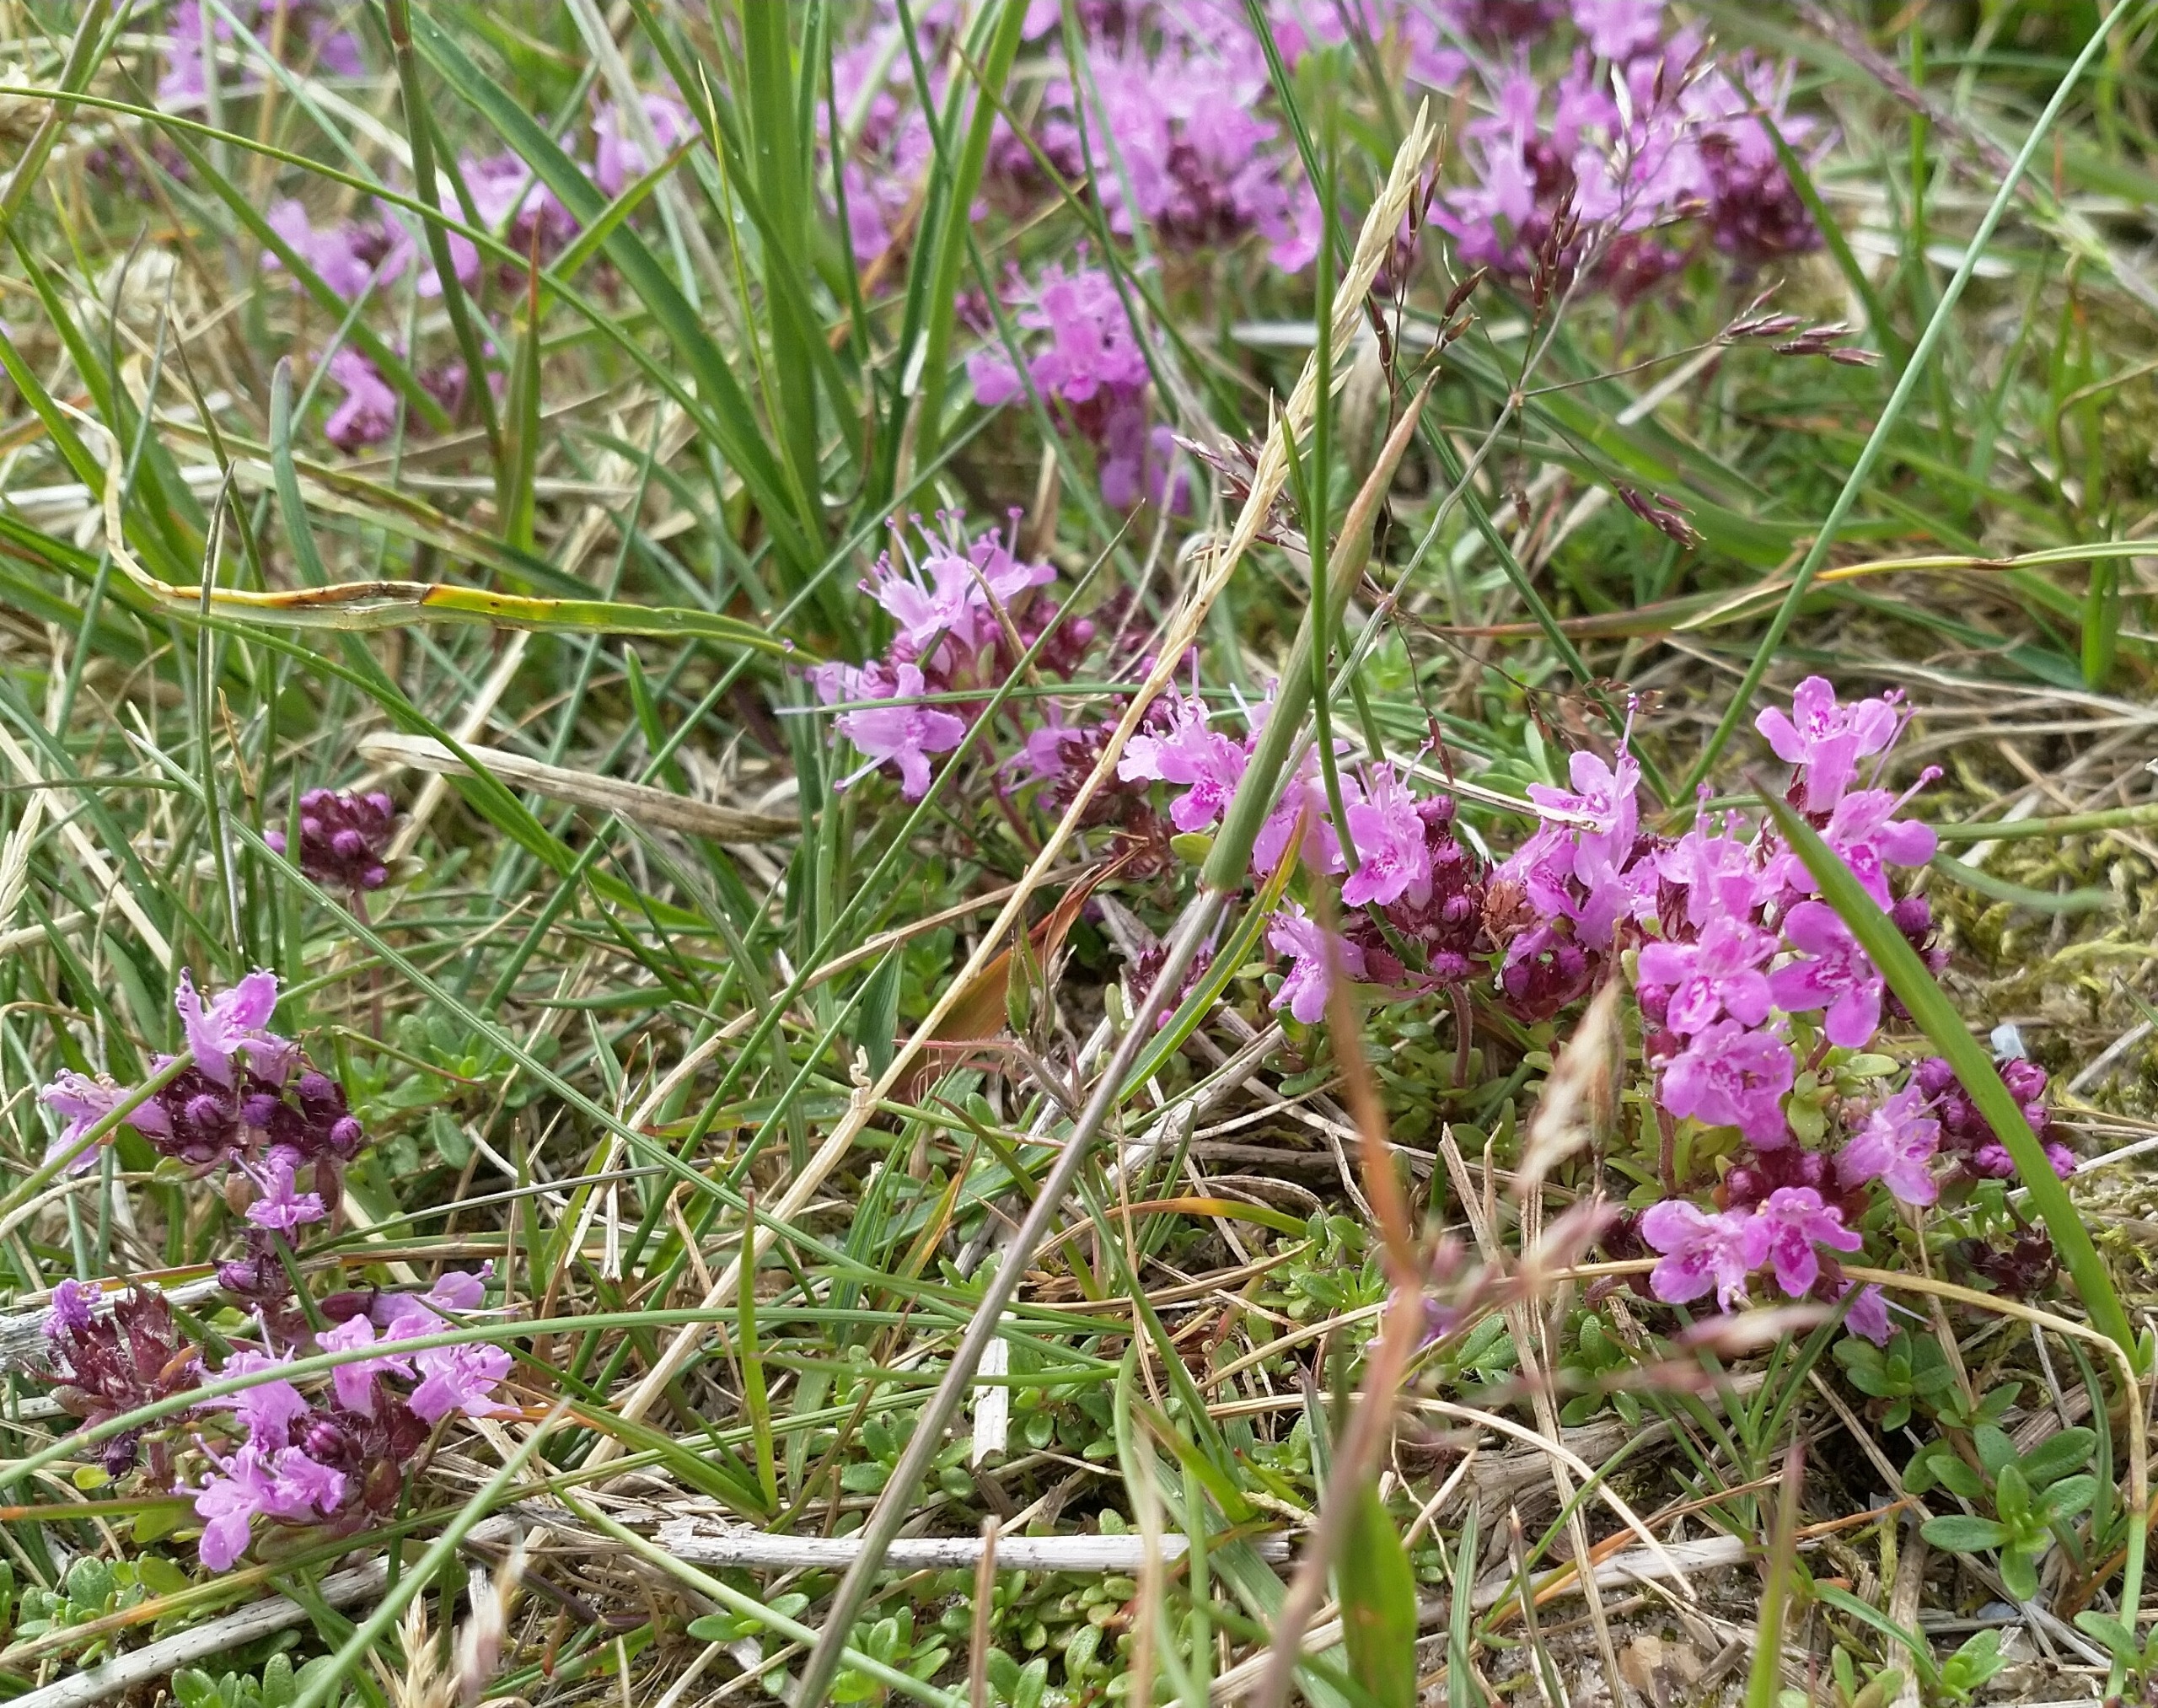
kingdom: Plantae
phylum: Tracheophyta
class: Magnoliopsida
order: Lamiales
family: Lamiaceae
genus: Thymus
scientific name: Thymus serpyllum
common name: Smalbladet timian
